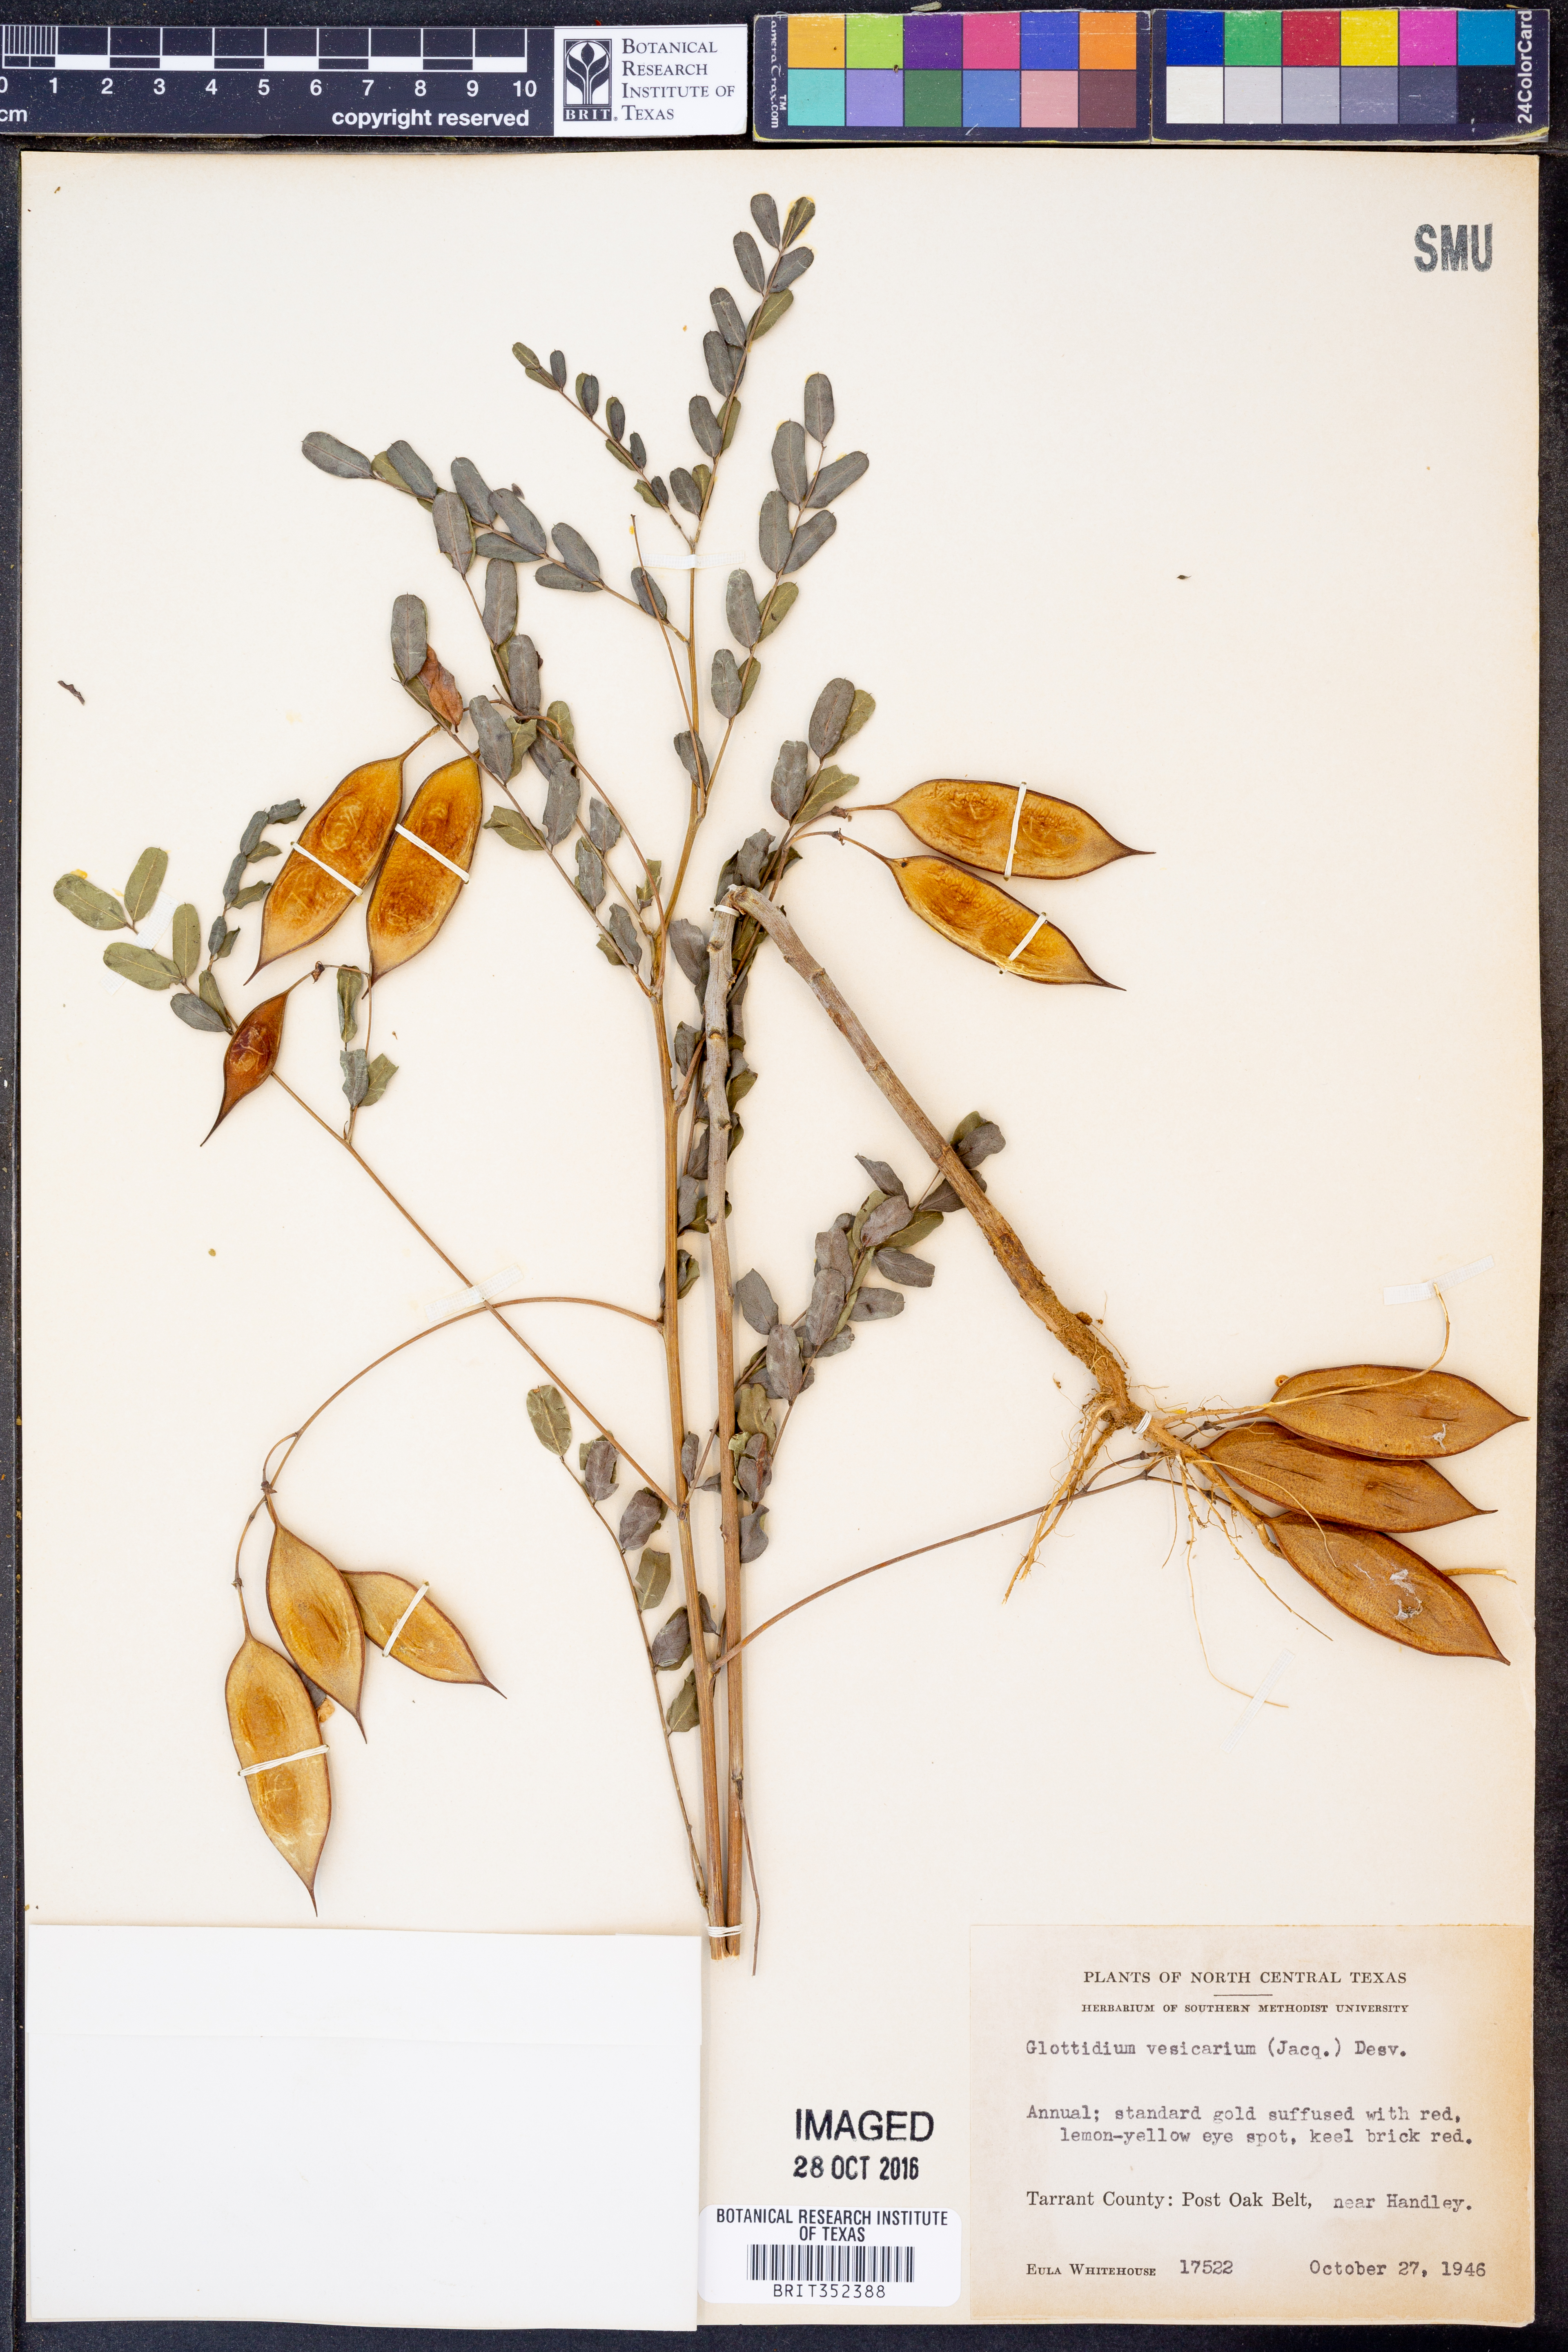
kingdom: Plantae
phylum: Tracheophyta
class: Magnoliopsida
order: Fabales
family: Fabaceae
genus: Sesbania
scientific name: Sesbania vesicaria
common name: Bagpod
